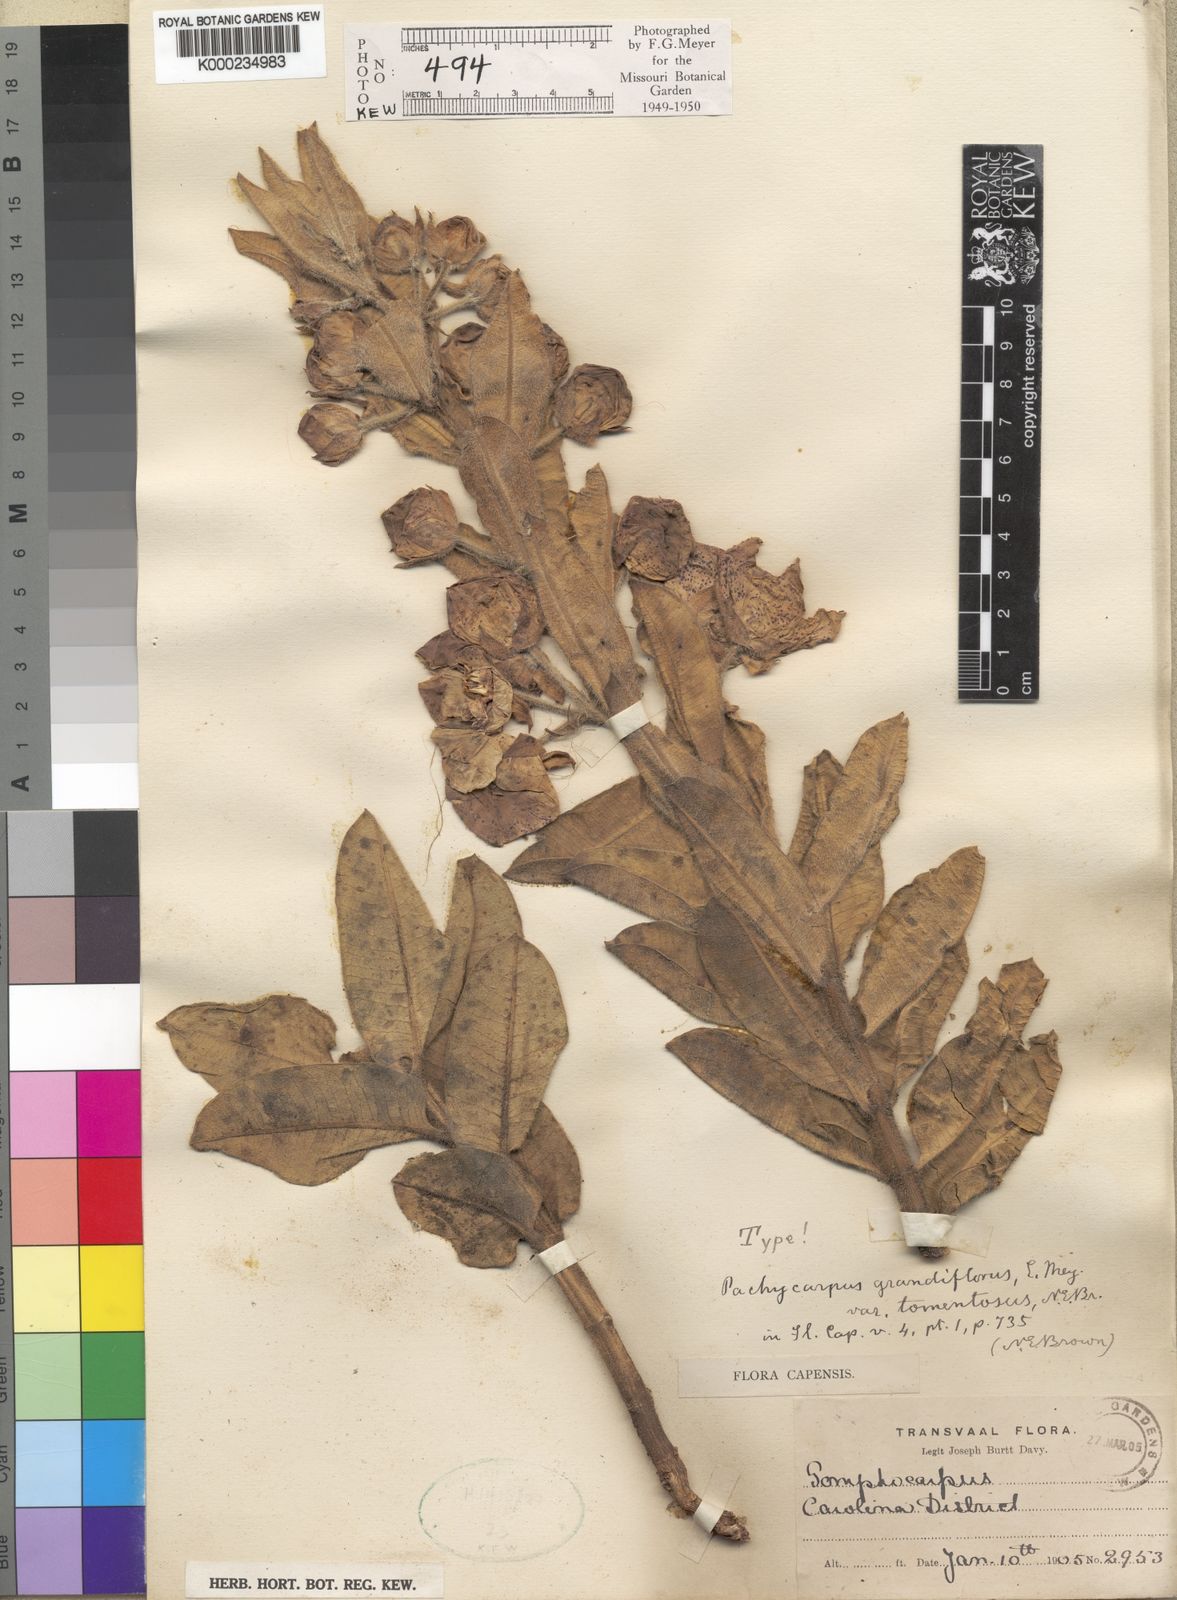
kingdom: Plantae
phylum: Tracheophyta
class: Magnoliopsida
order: Gentianales
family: Apocynaceae
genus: Pachycarpus
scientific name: Pachycarpus grandiflorus
